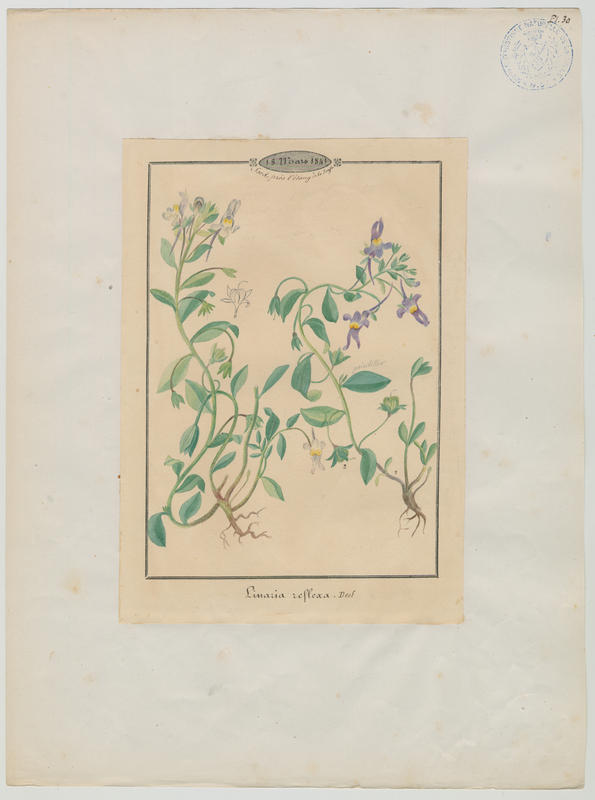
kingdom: Plantae
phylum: Tracheophyta
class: Magnoliopsida
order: Lamiales
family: Plantaginaceae
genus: Linaria
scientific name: Linaria reflexa
